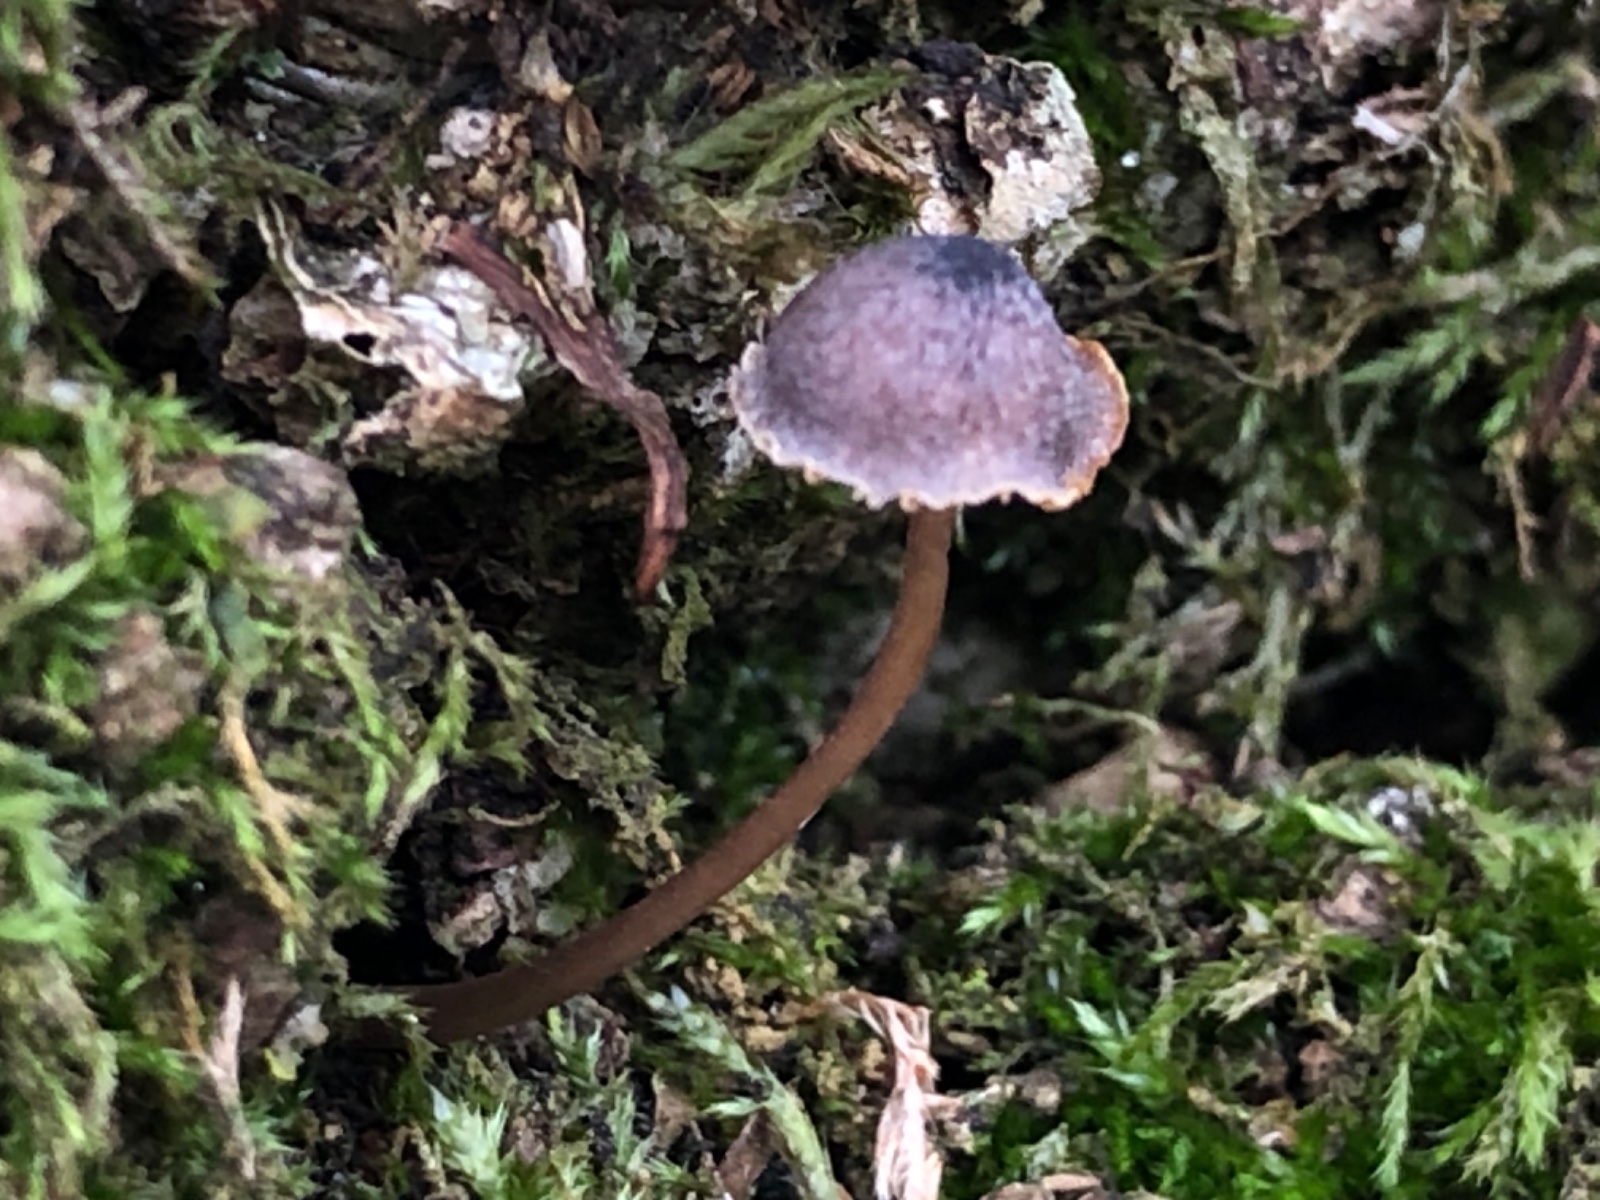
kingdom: Fungi
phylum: Basidiomycota
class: Agaricomycetes
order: Agaricales
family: Mycenaceae
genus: Mycena
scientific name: Mycena erubescens
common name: galde-huesvamp
